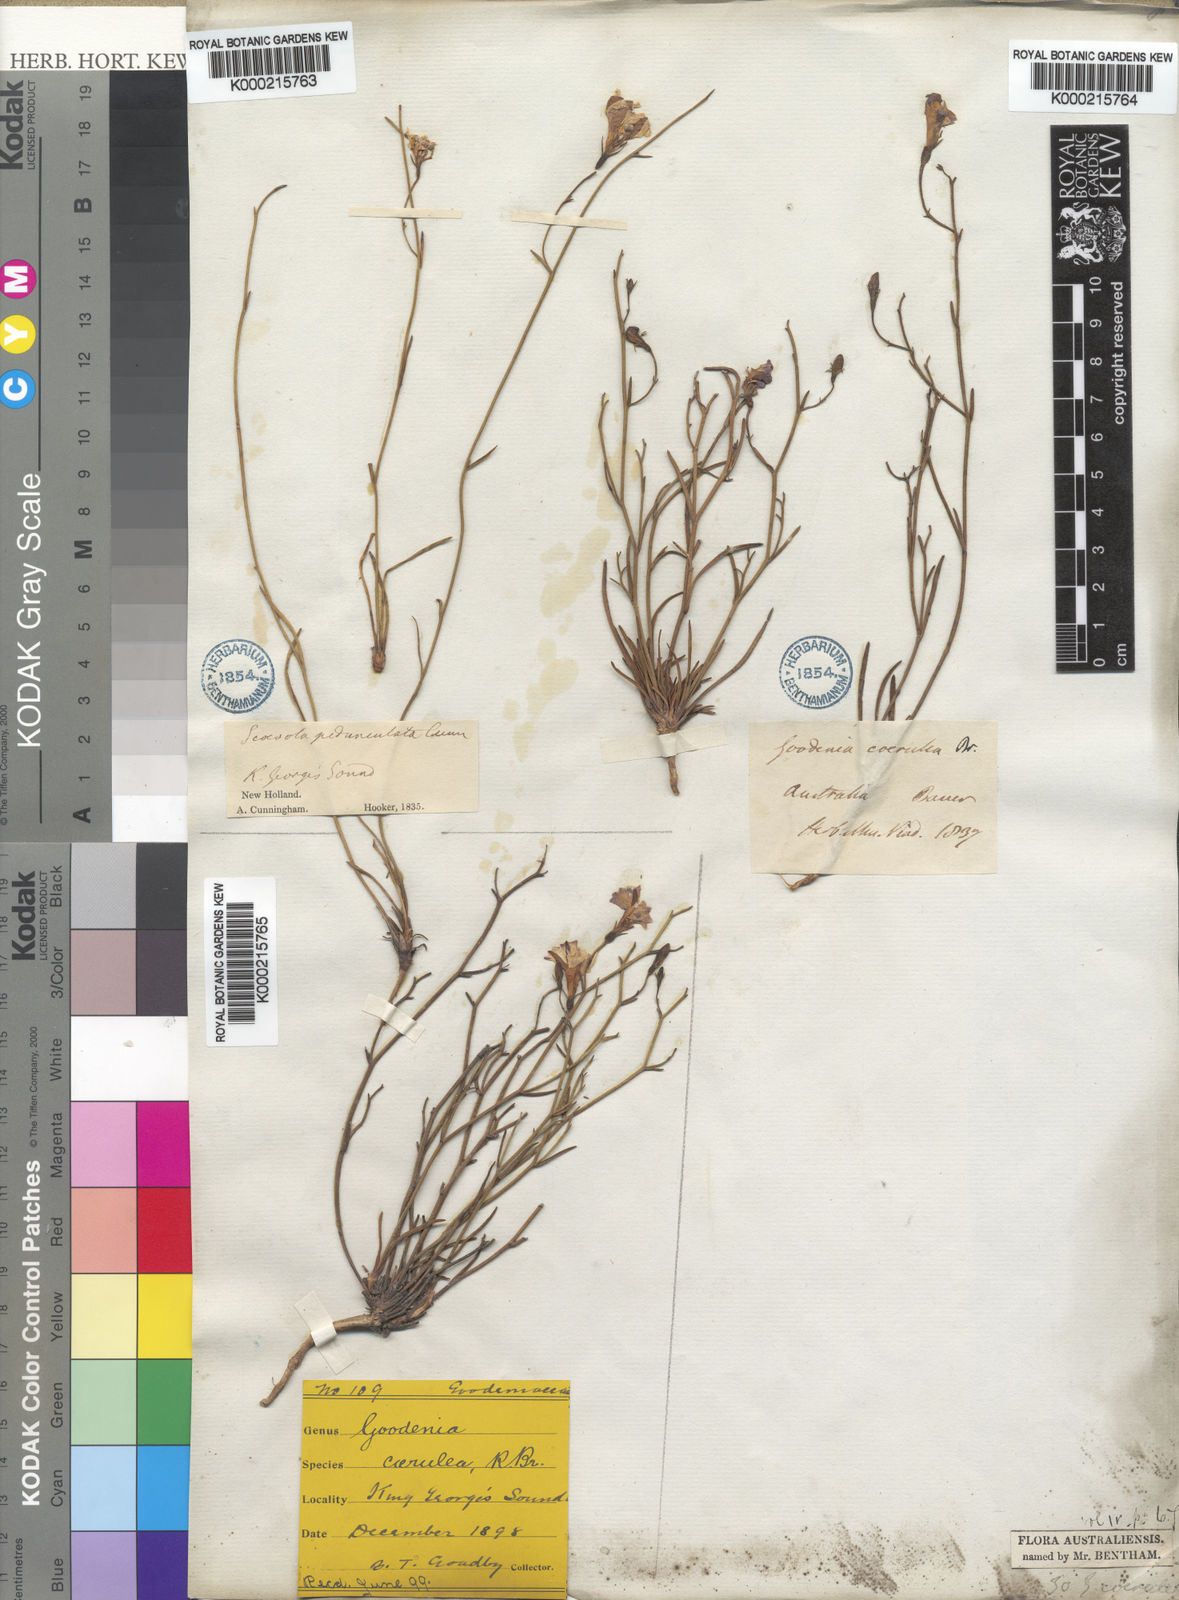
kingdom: Plantae
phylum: Tracheophyta
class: Magnoliopsida
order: Asterales
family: Goodeniaceae
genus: Scaevola
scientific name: Scaevola
